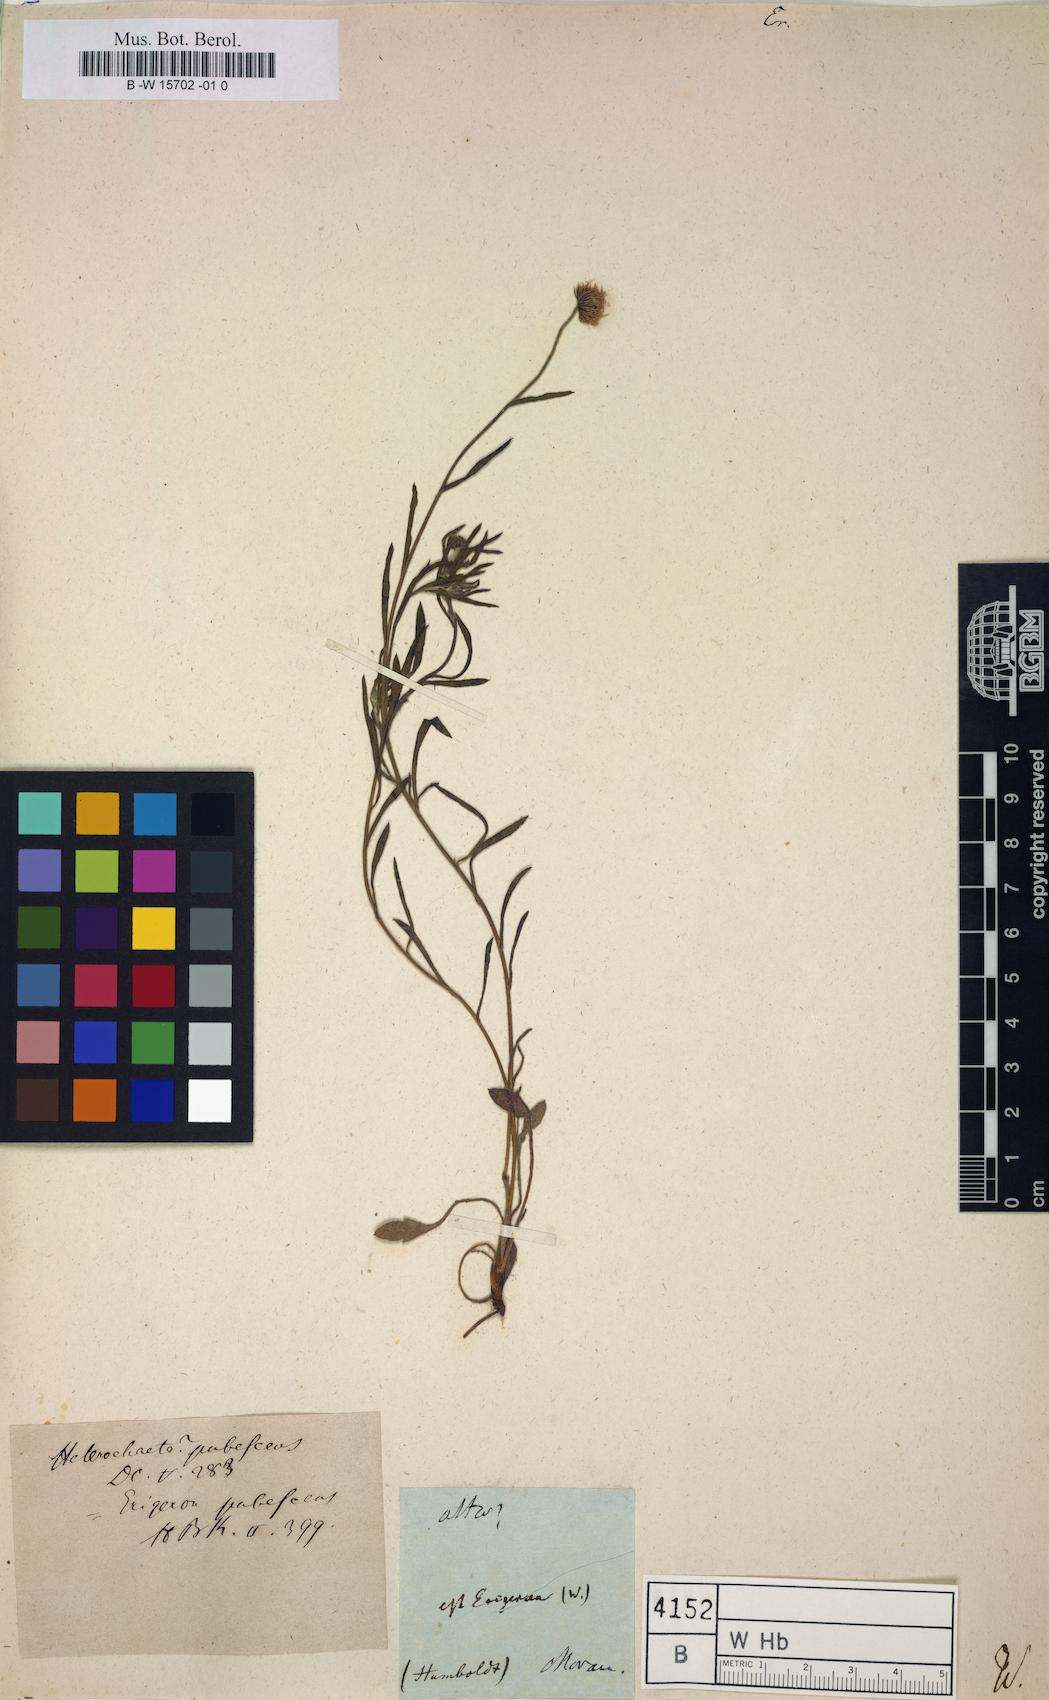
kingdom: Plantae
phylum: Tracheophyta
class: Magnoliopsida
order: Asterales
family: Asteraceae
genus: Erigeron
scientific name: Erigeron
